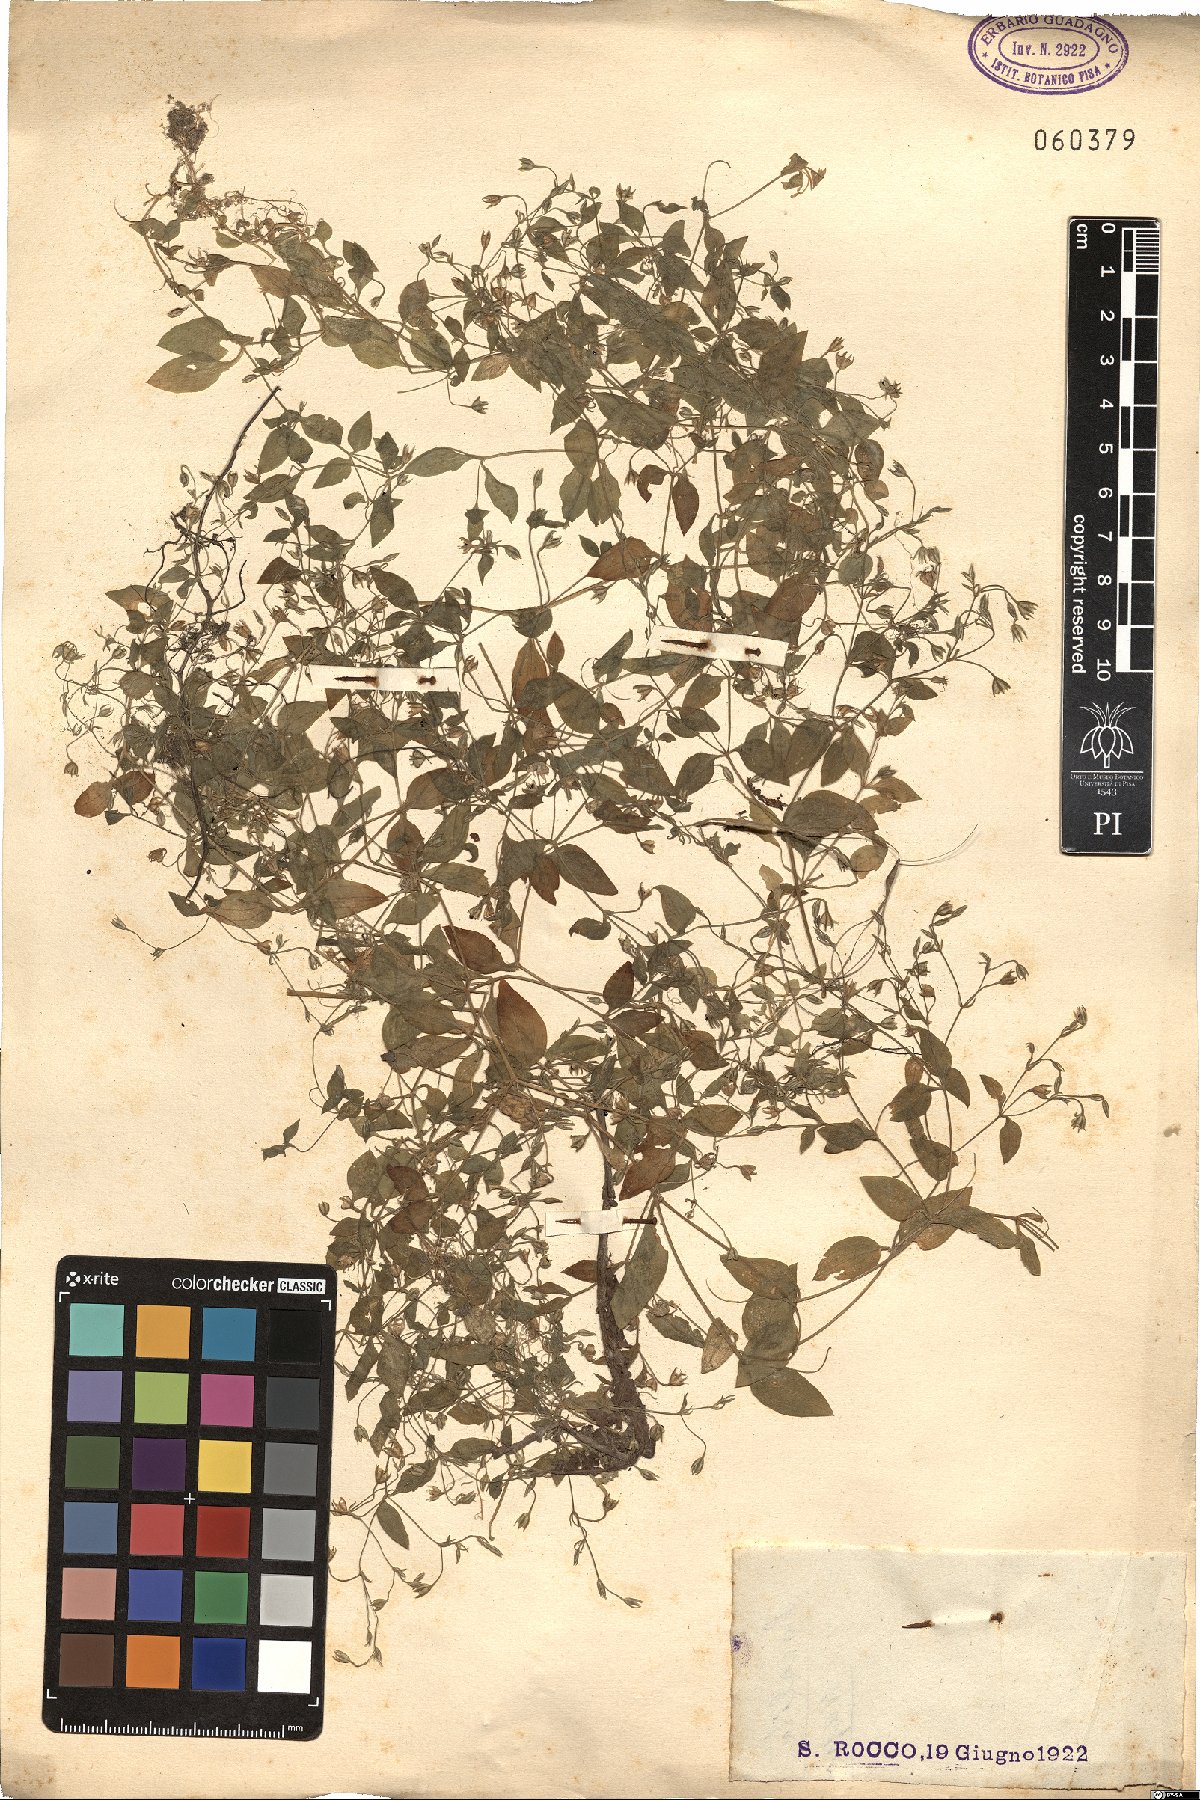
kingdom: Plantae
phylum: Tracheophyta
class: Magnoliopsida
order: Caryophyllales
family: Caryophyllaceae
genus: Stellaria
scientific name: Stellaria
